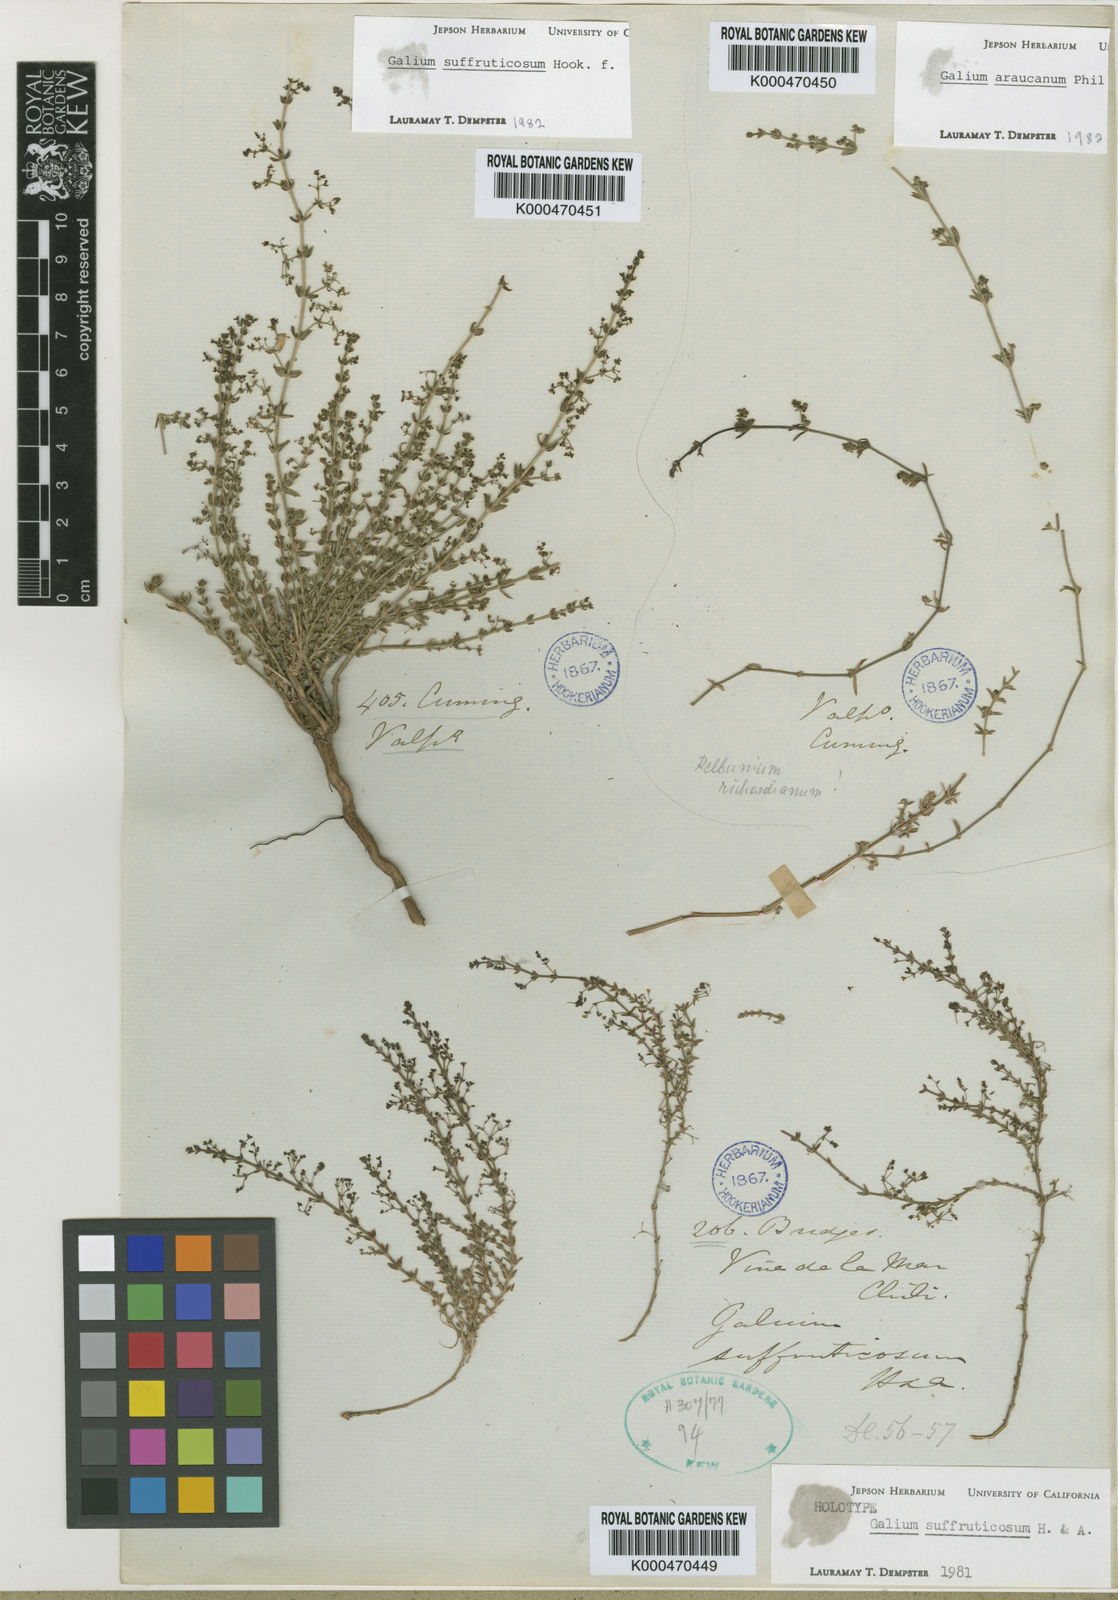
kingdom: Plantae
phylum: Tracheophyta
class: Magnoliopsida
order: Gentianales
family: Rubiaceae
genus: Galium
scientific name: Galium suffruticosum
